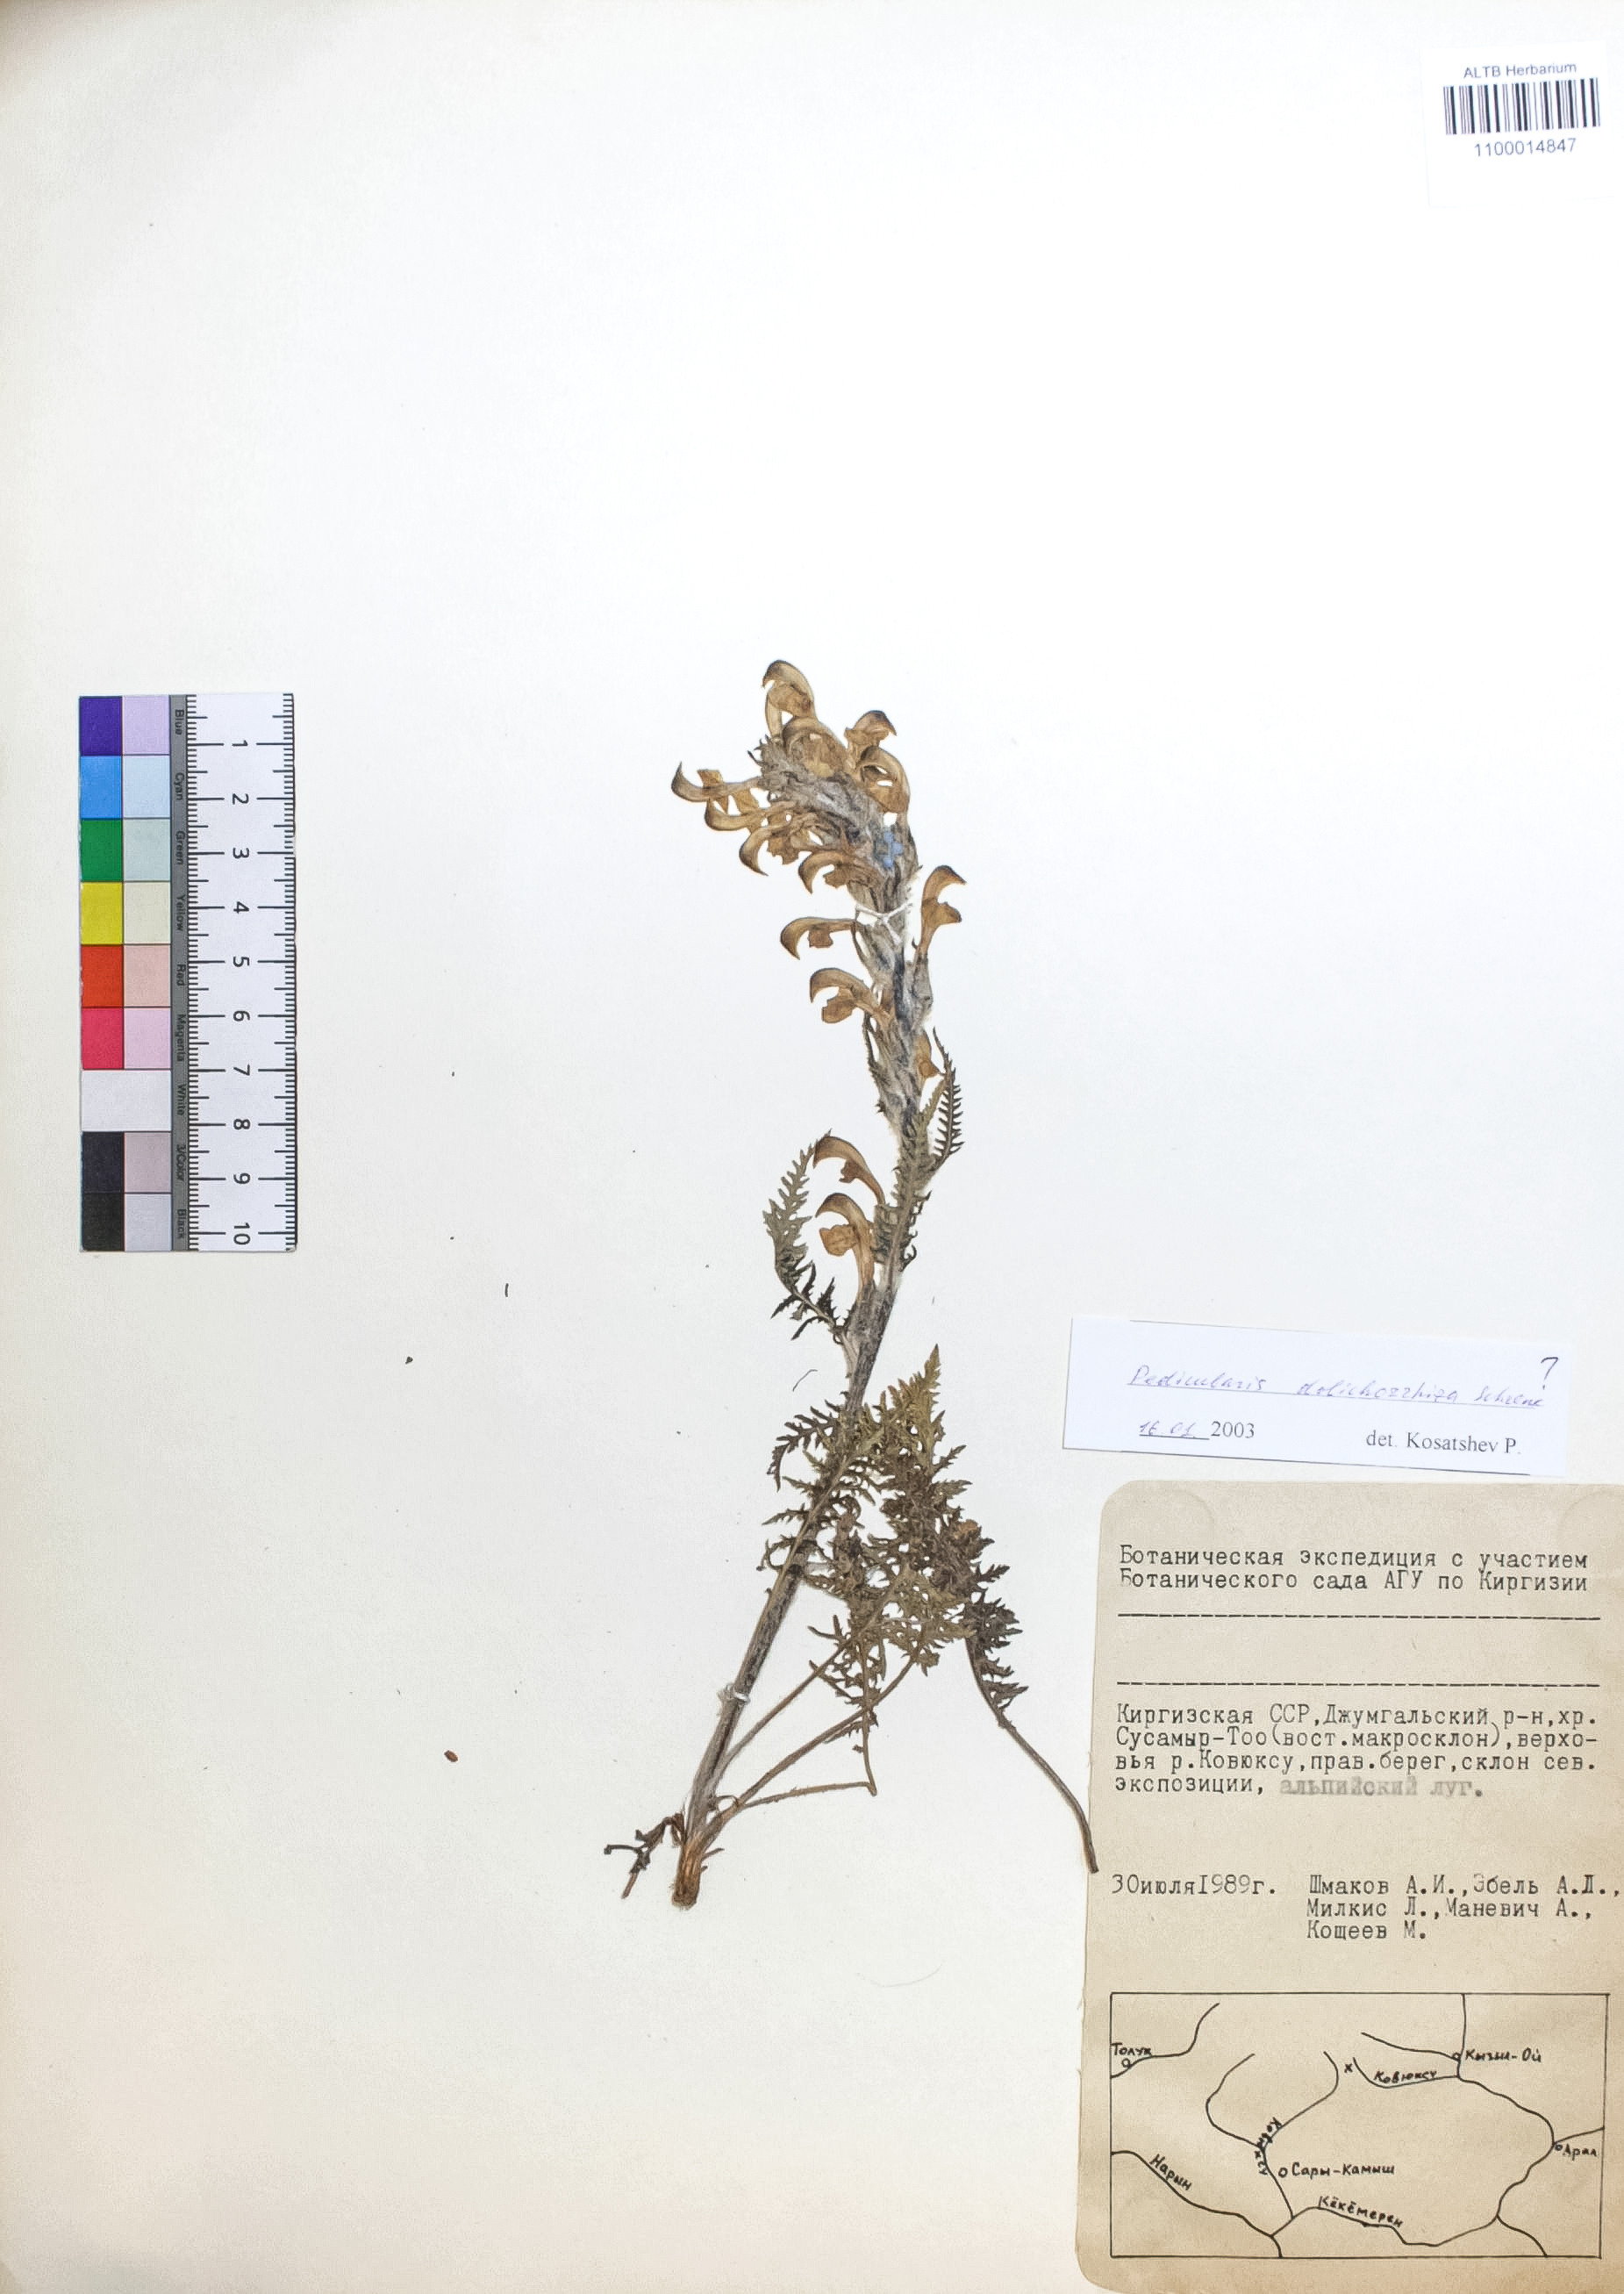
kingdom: Plantae
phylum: Tracheophyta
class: Magnoliopsida
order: Lamiales
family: Orobanchaceae
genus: Pedicularis
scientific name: Pedicularis dolichorrhiza
